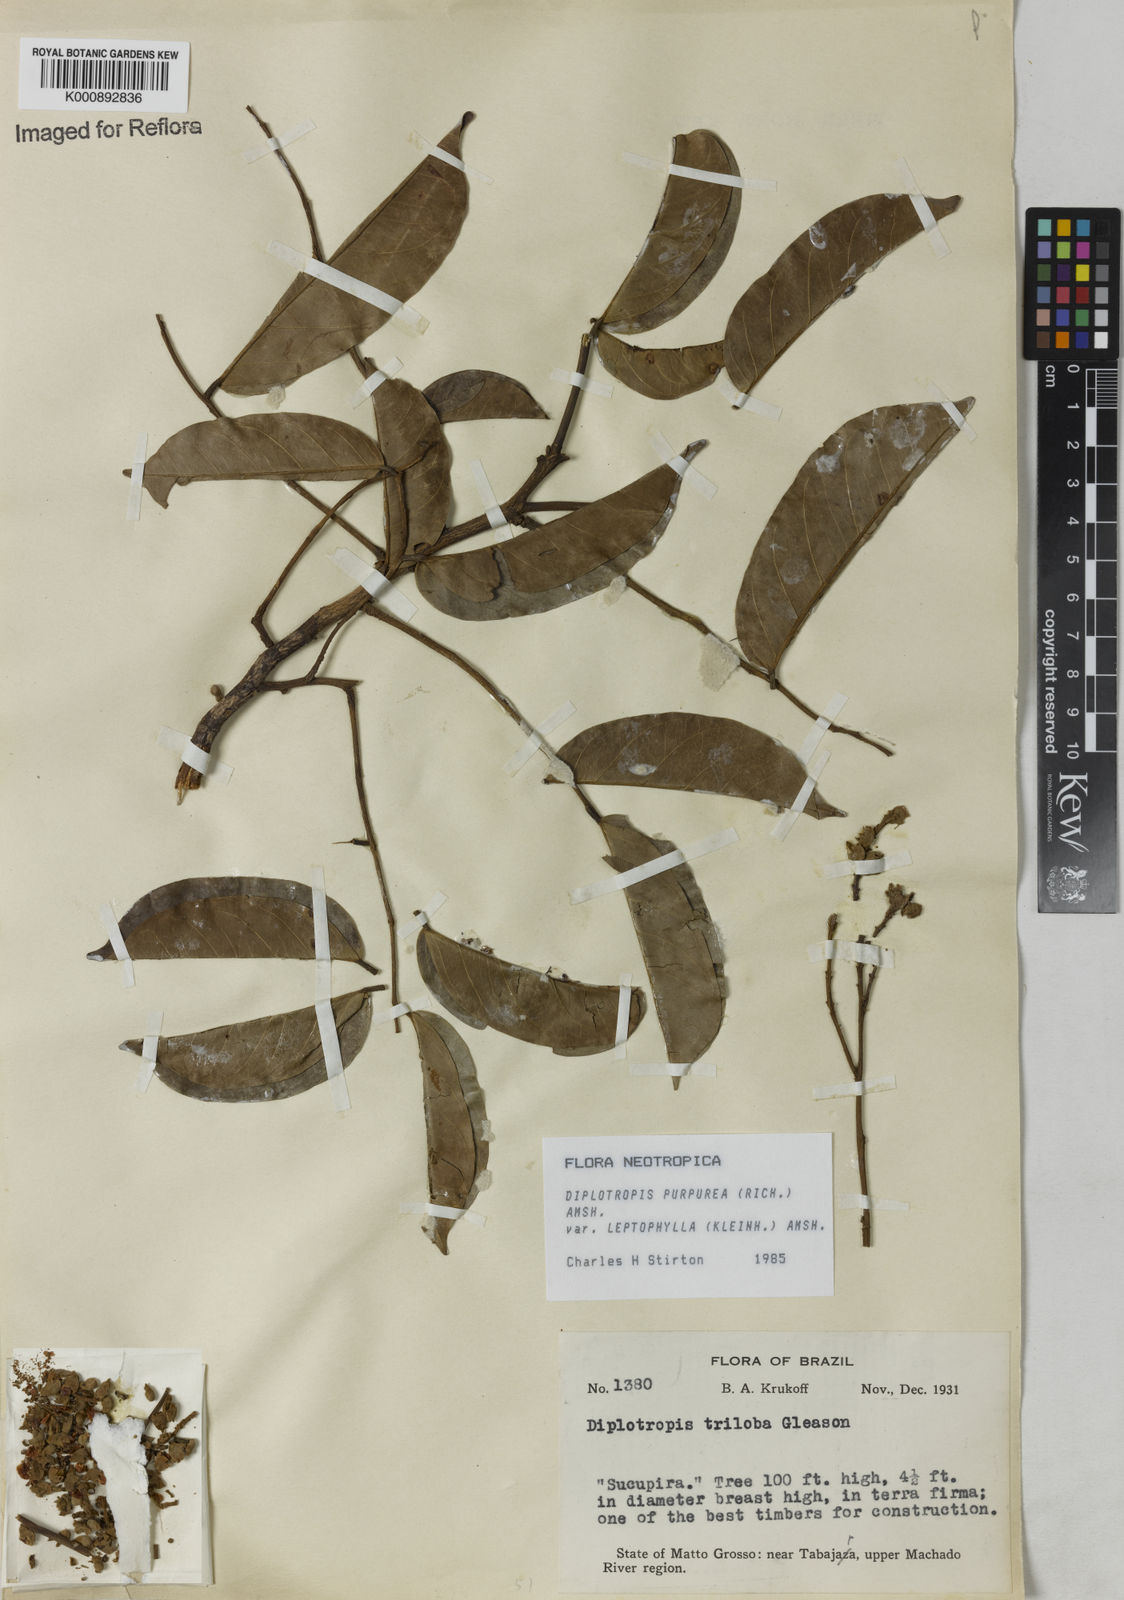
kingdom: Plantae
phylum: Tracheophyta
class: Magnoliopsida
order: Fabales
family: Fabaceae
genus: Diplotropis
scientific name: Diplotropis purpurea
